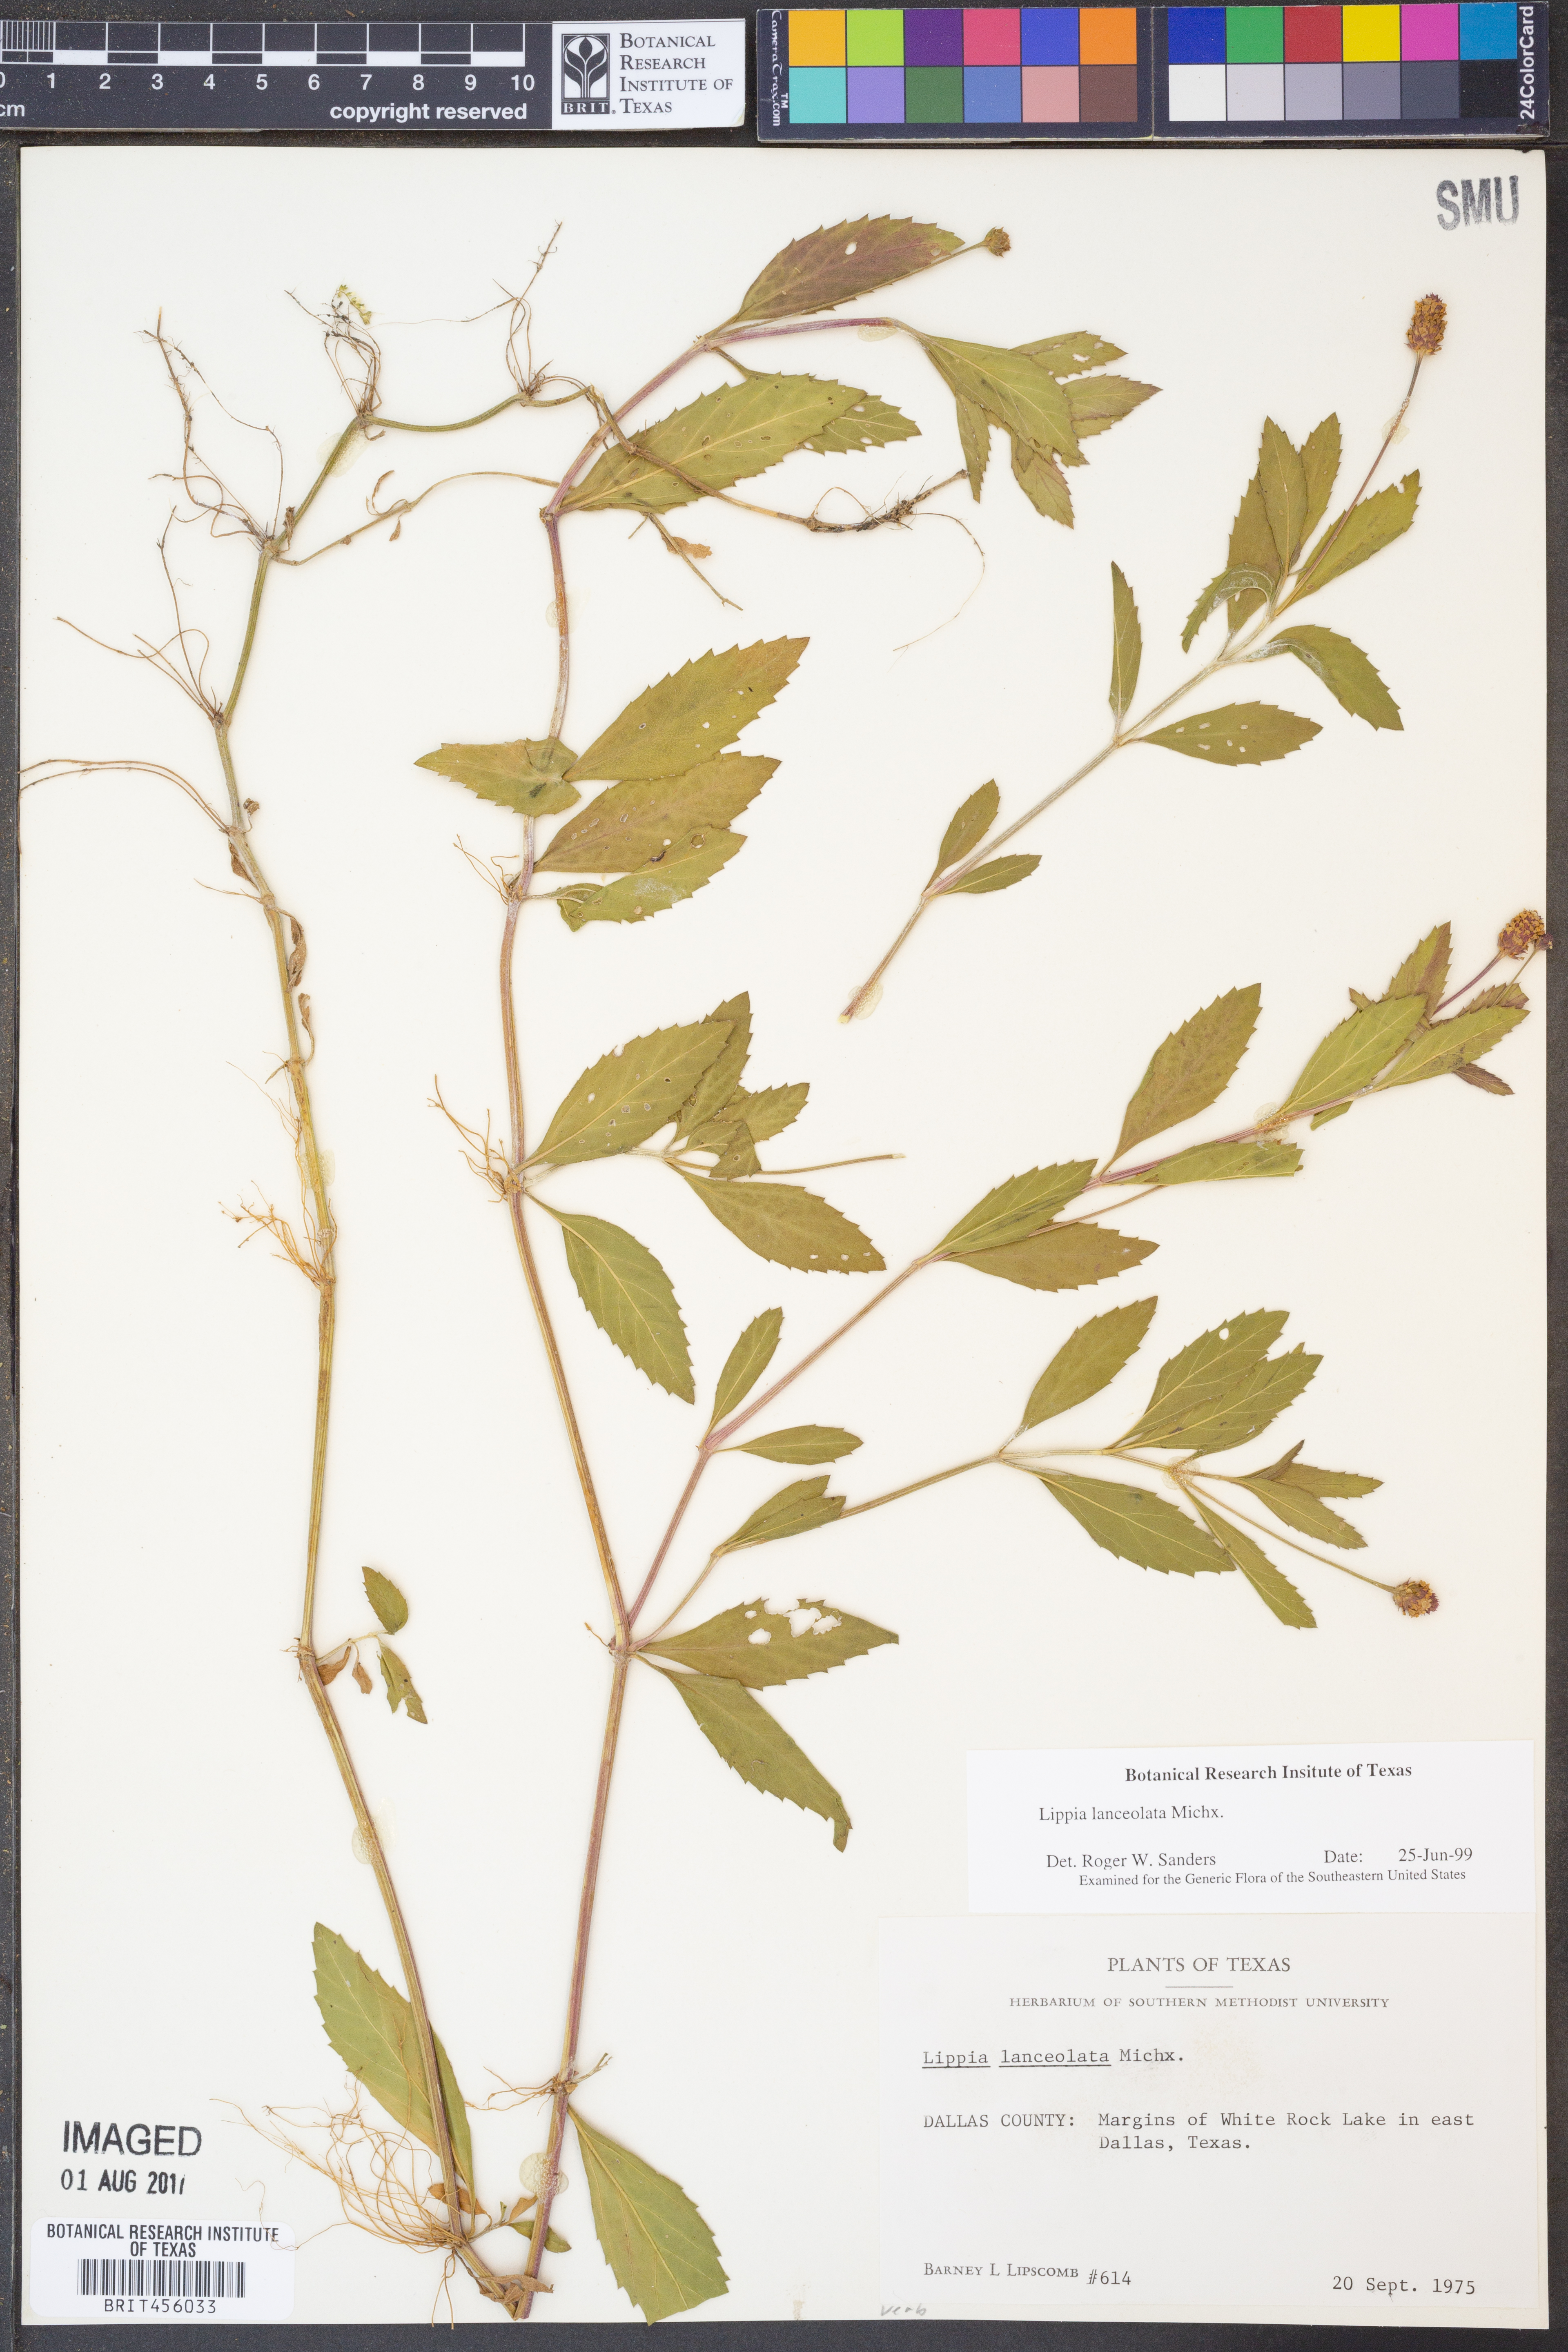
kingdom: Plantae
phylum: Tracheophyta
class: Magnoliopsida
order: Lamiales
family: Verbenaceae
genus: Phyla
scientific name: Phyla lanceolata
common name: Northern fogfruit
